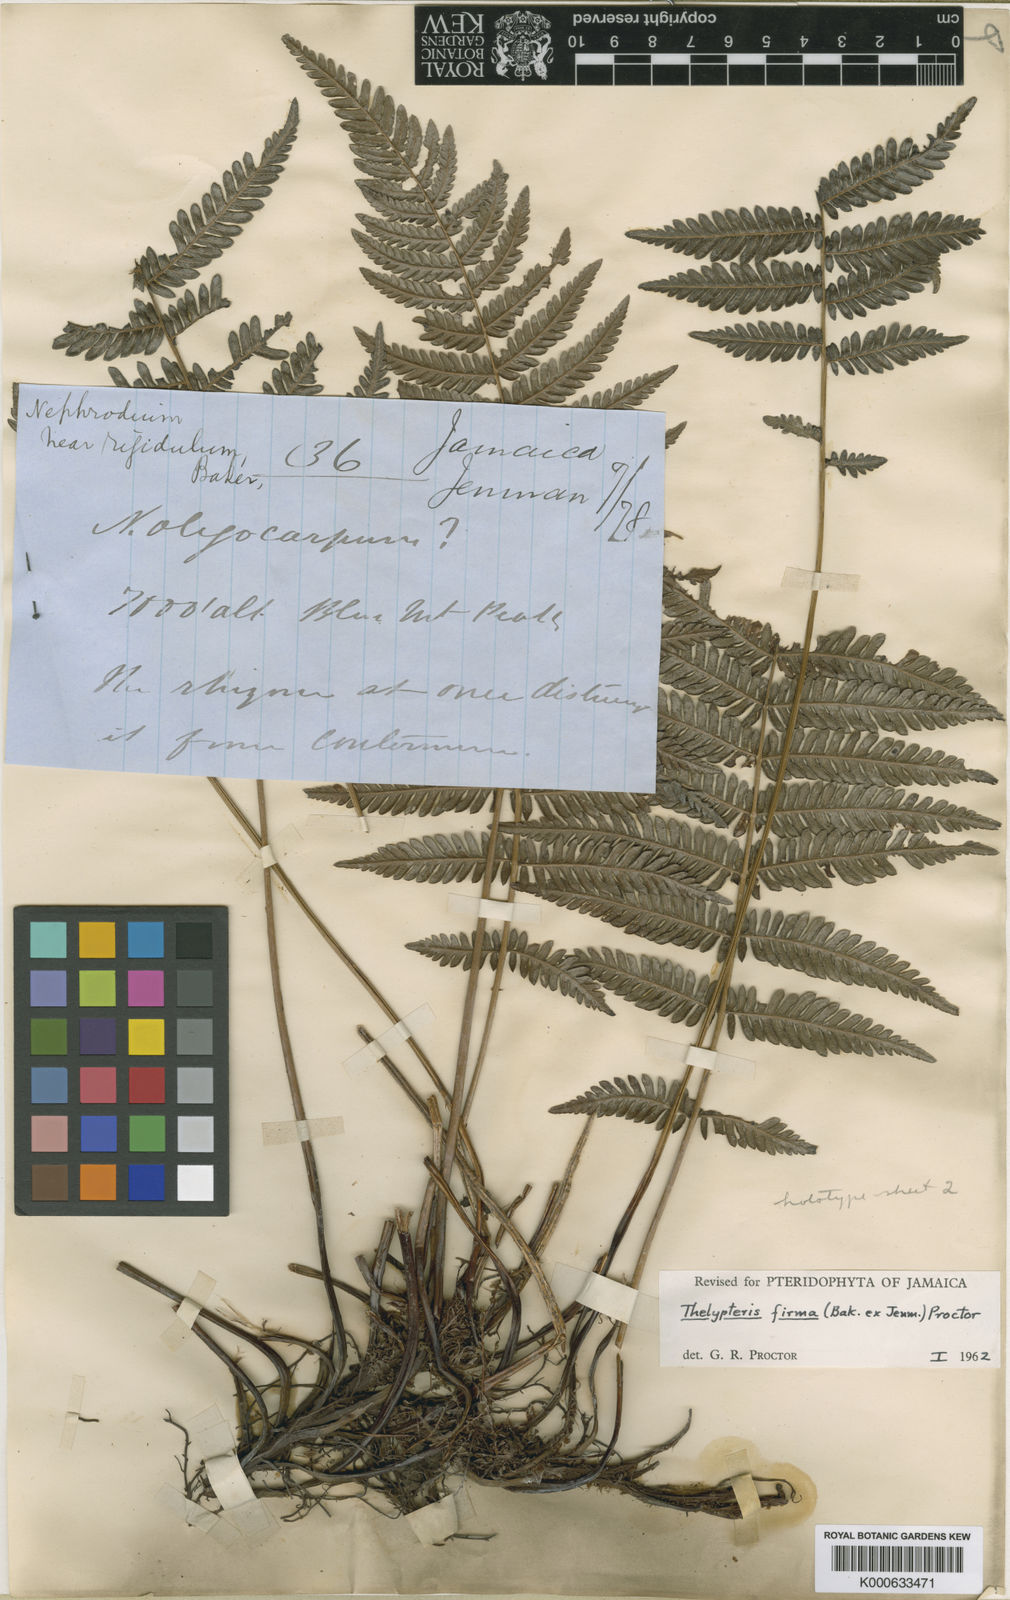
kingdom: Plantae
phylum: Tracheophyta
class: Polypodiopsida
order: Polypodiales
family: Thelypteridaceae
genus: Amauropelta
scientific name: Amauropelta firma
